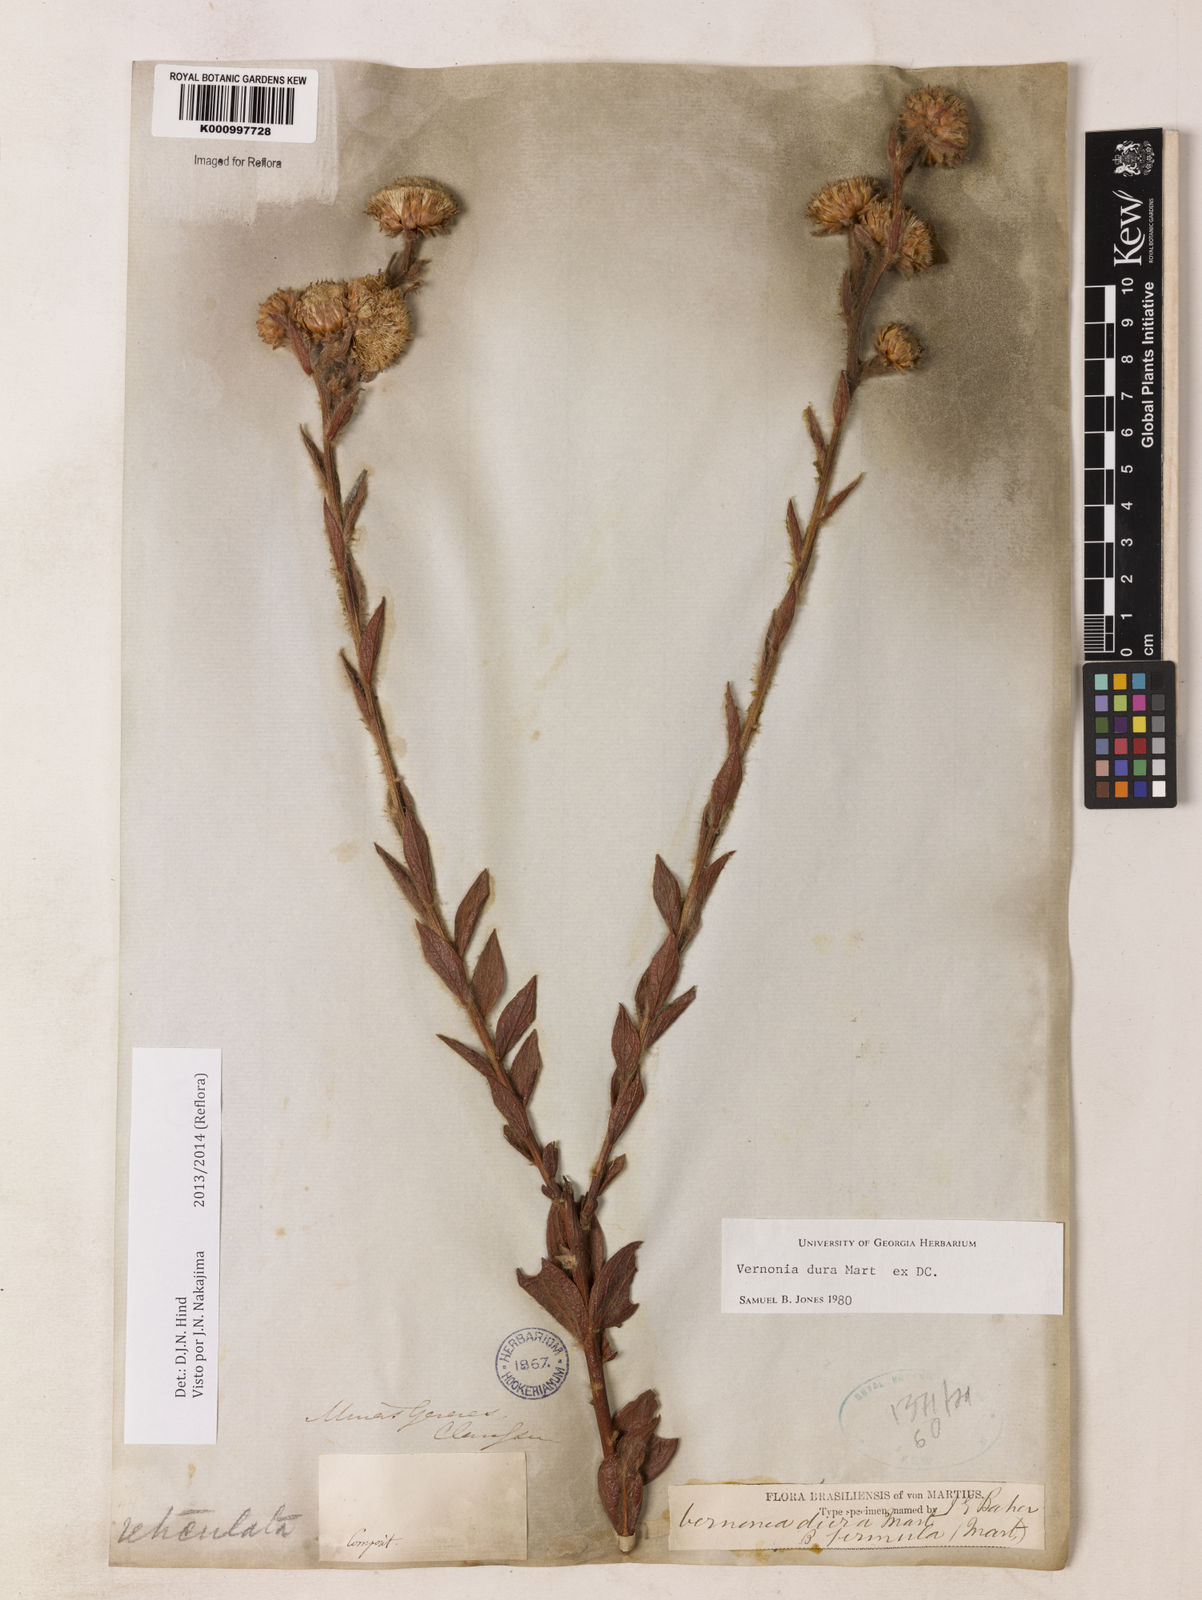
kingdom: Plantae
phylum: Tracheophyta
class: Magnoliopsida
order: Asterales
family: Asteraceae
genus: Lessingianthus
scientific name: Lessingianthus durus
